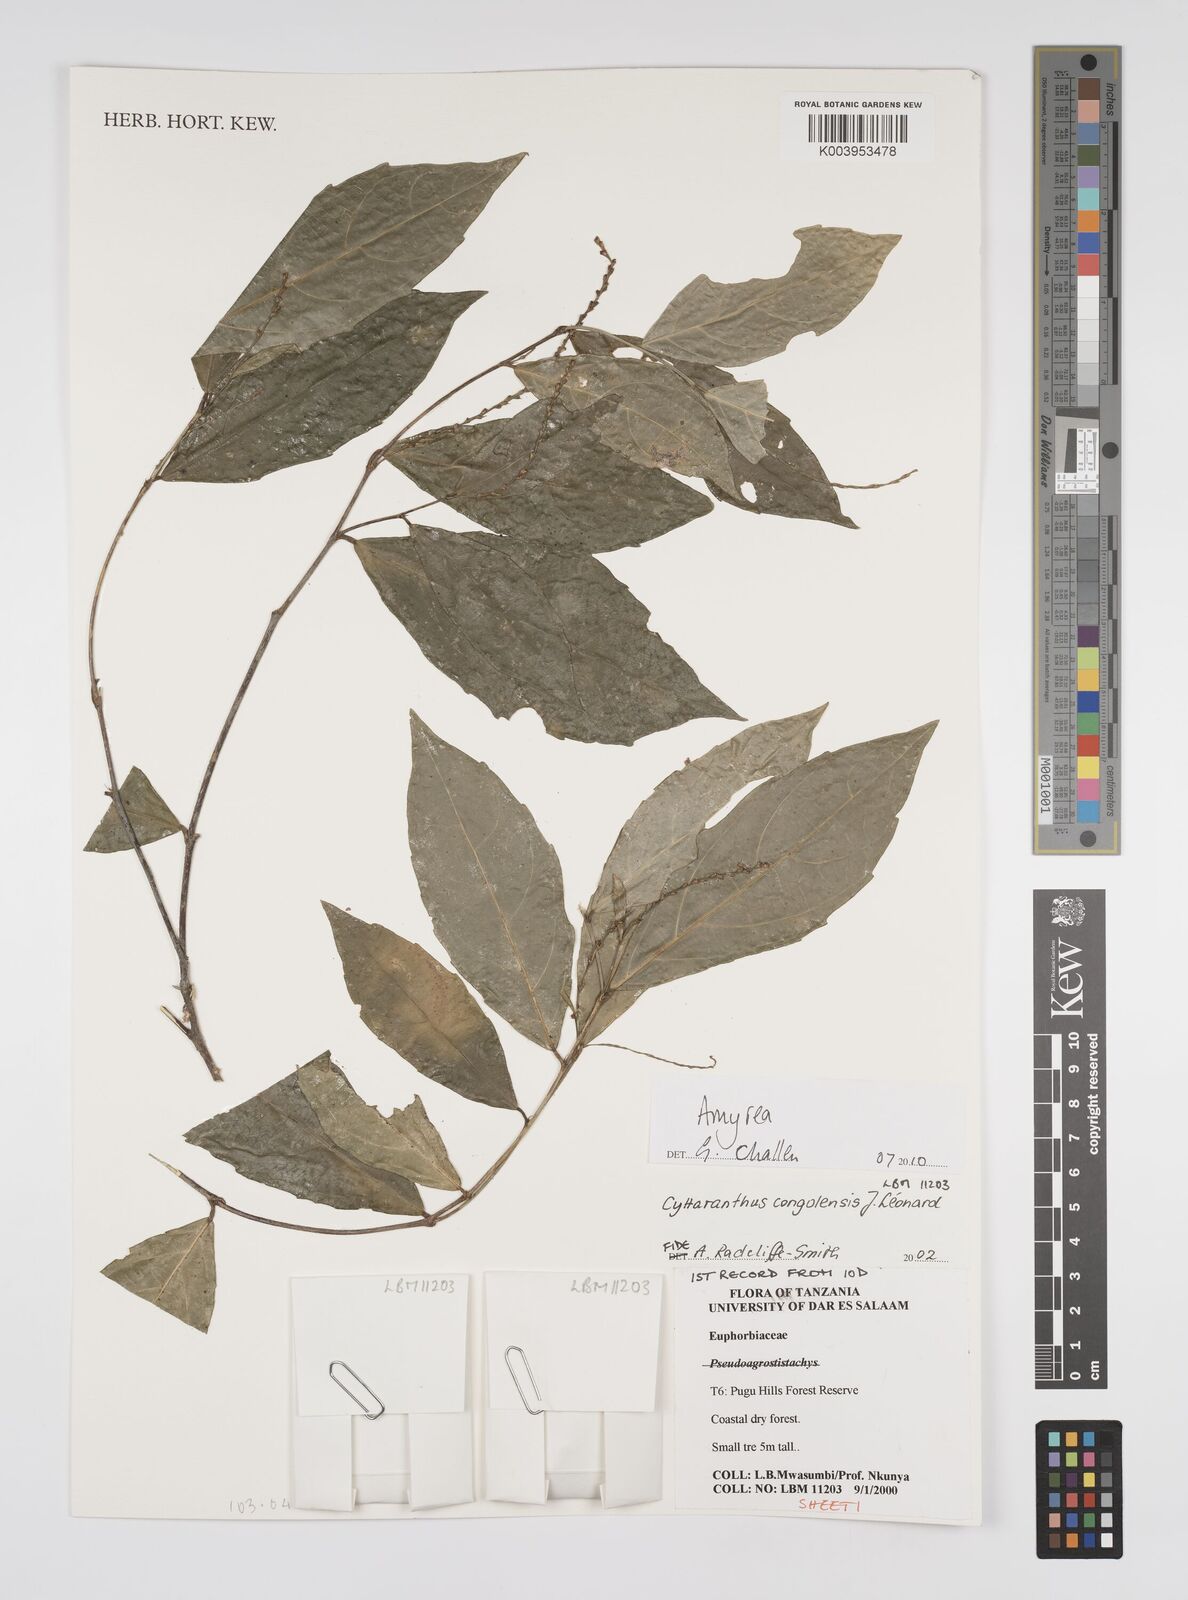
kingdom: Plantae
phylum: Tracheophyta
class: Magnoliopsida
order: Malpighiales
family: Euphorbiaceae
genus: Amyrea
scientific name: Amyrea
